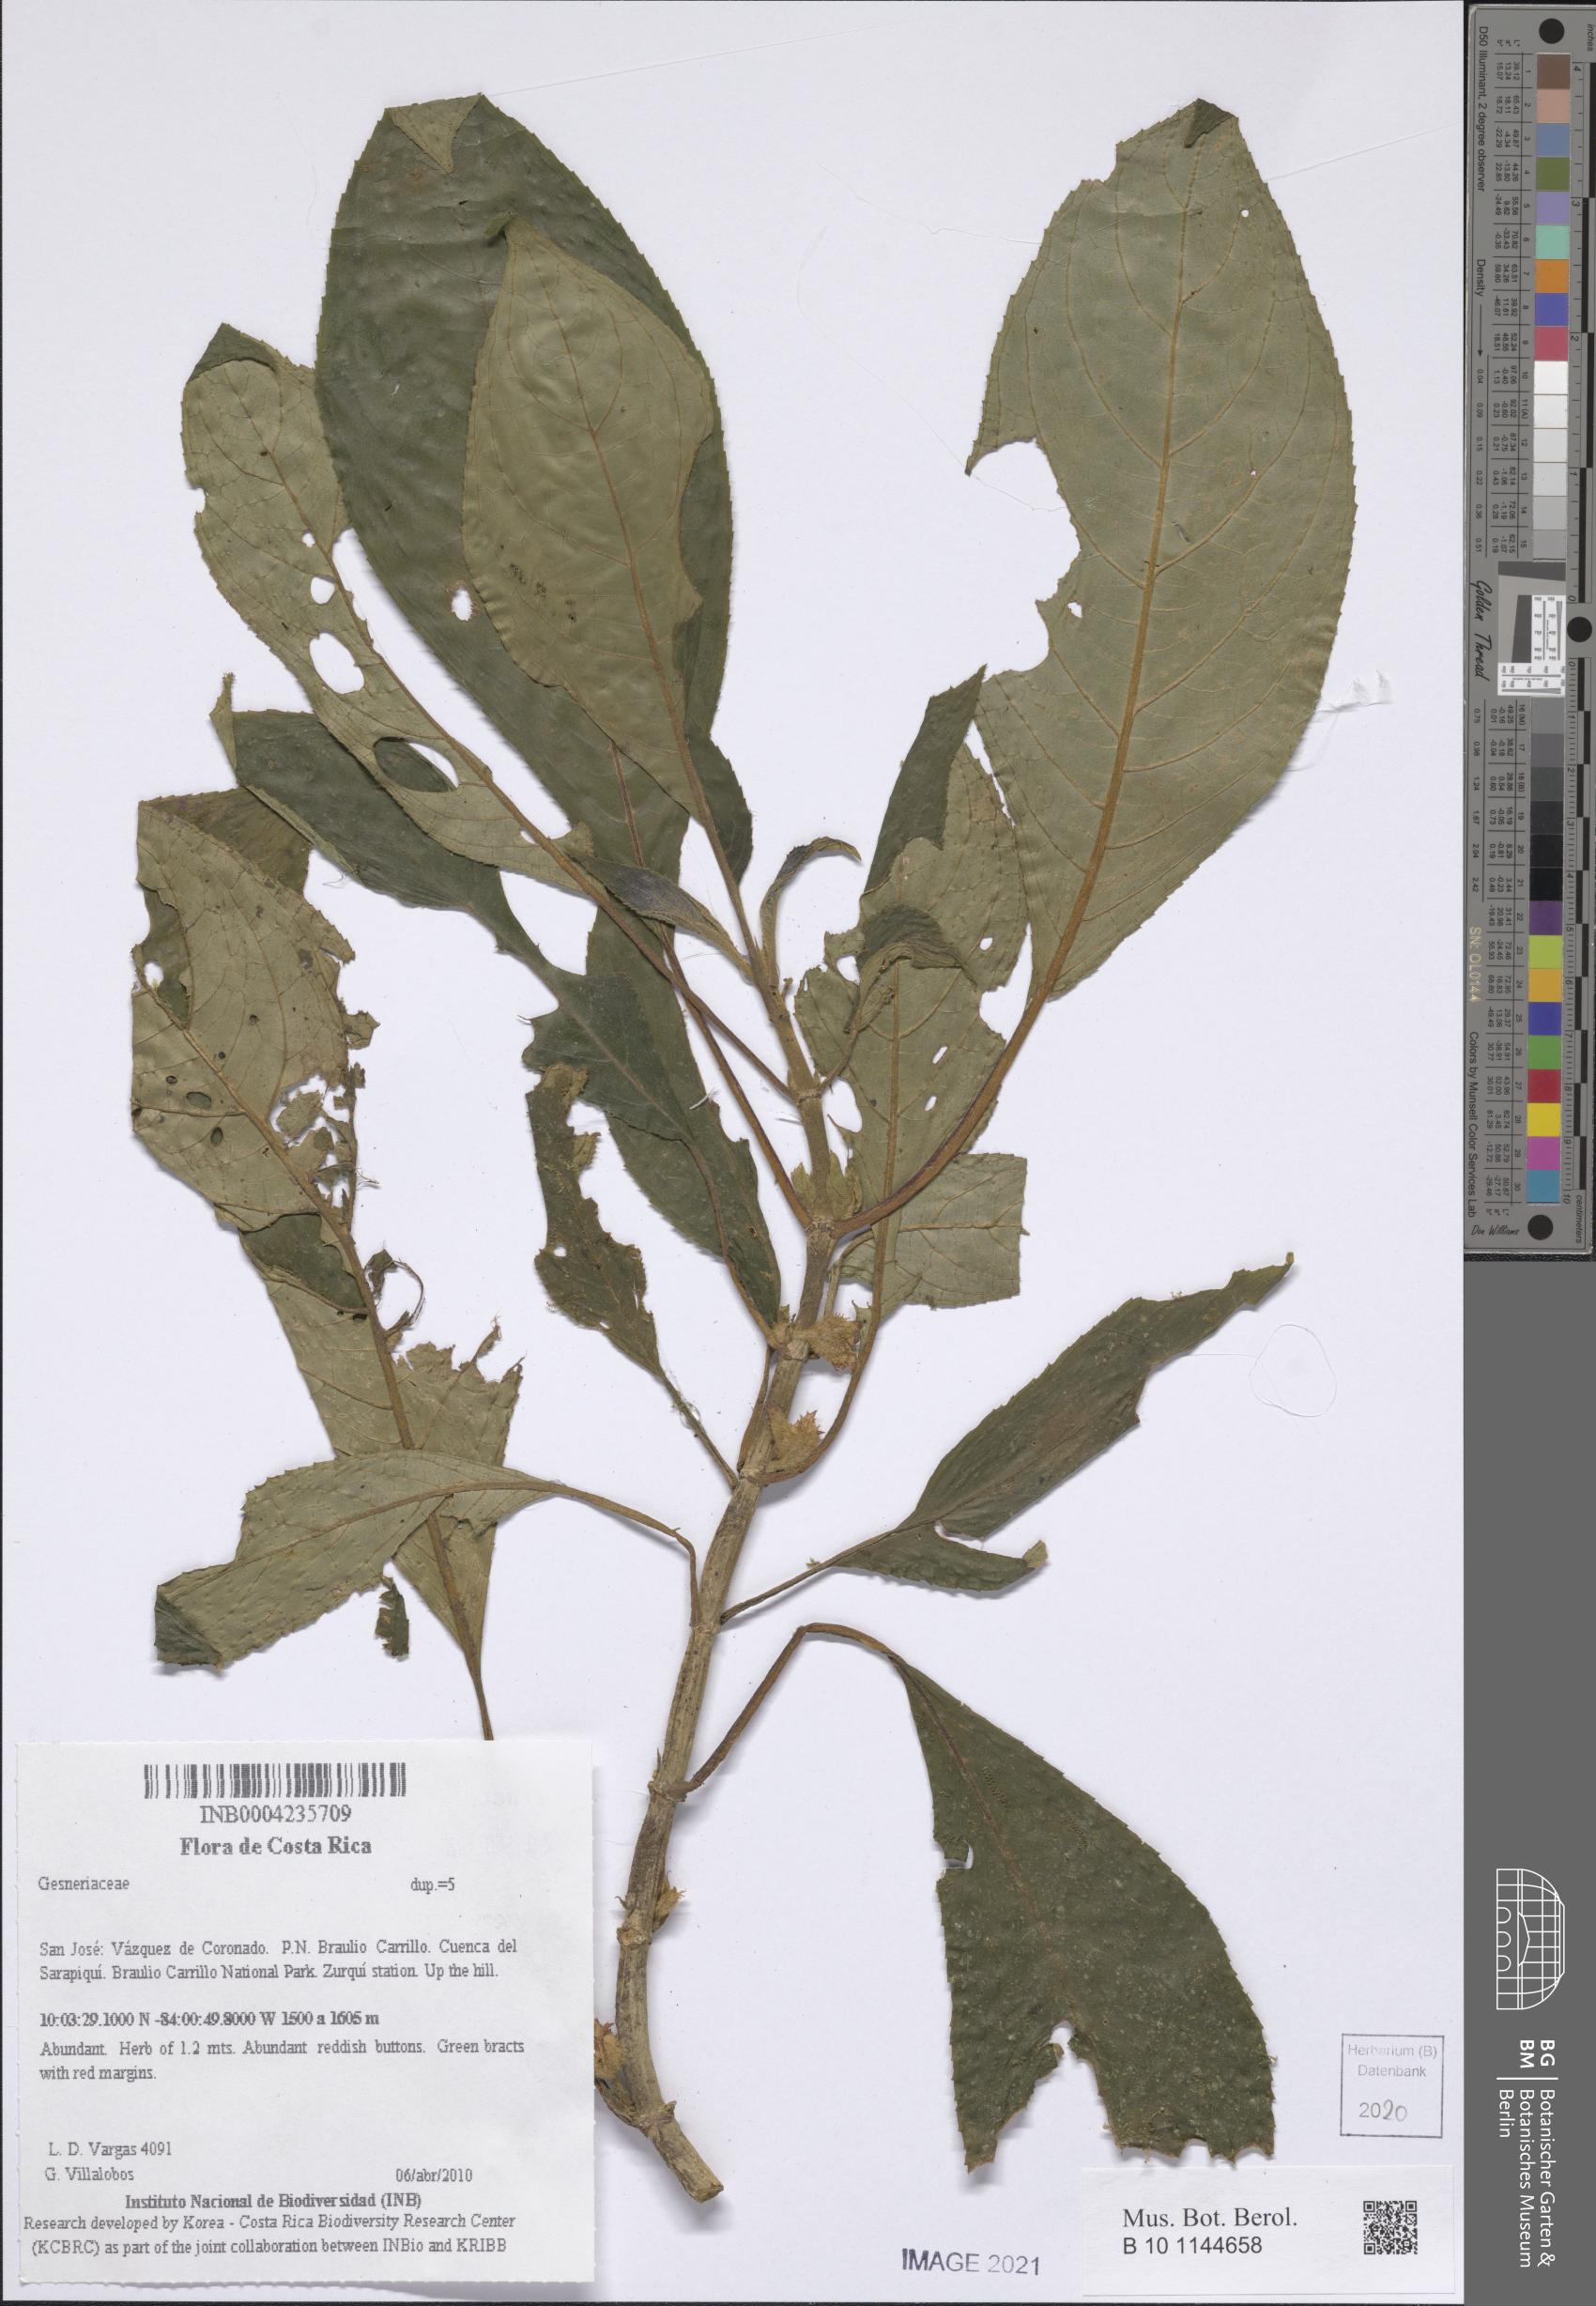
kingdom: Plantae
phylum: Tracheophyta
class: Magnoliopsida
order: Lamiales
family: Gesneriaceae
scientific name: Gesneriaceae
